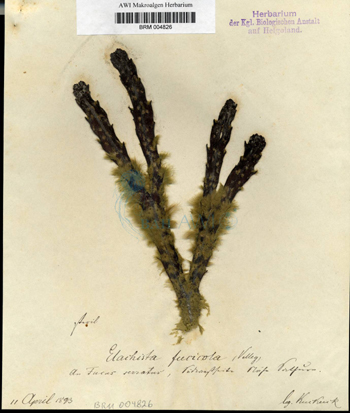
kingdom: Chromista
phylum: Ochrophyta
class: Phaeophyceae
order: Ectocarpales
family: Chordariaceae
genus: Elachista
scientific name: Elachista fucicola
